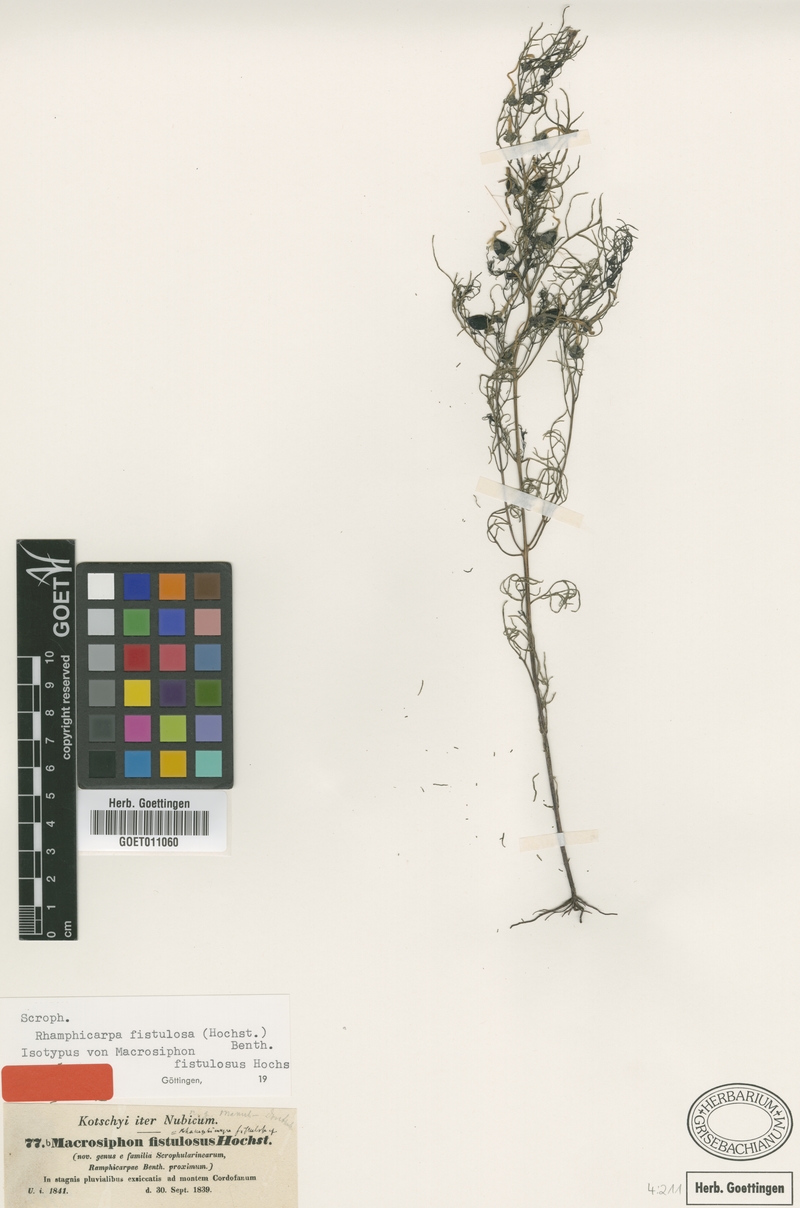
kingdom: Plantae
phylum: Tracheophyta
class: Magnoliopsida
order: Lamiales
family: Orobanchaceae
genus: Rhamphicarpa
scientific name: Rhamphicarpa fistulosa
